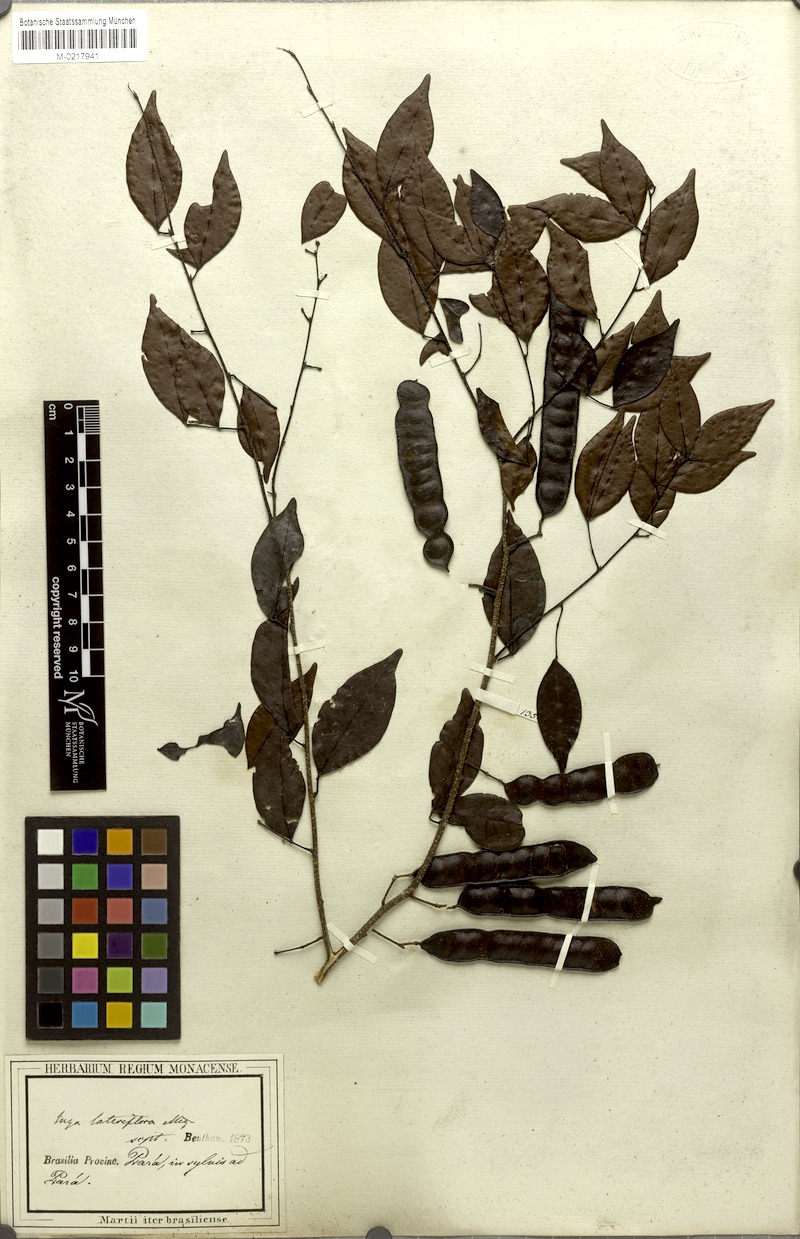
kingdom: Plantae
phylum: Tracheophyta
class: Magnoliopsida
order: Fabales
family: Fabaceae
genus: Inga
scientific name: Inga lateriflora
